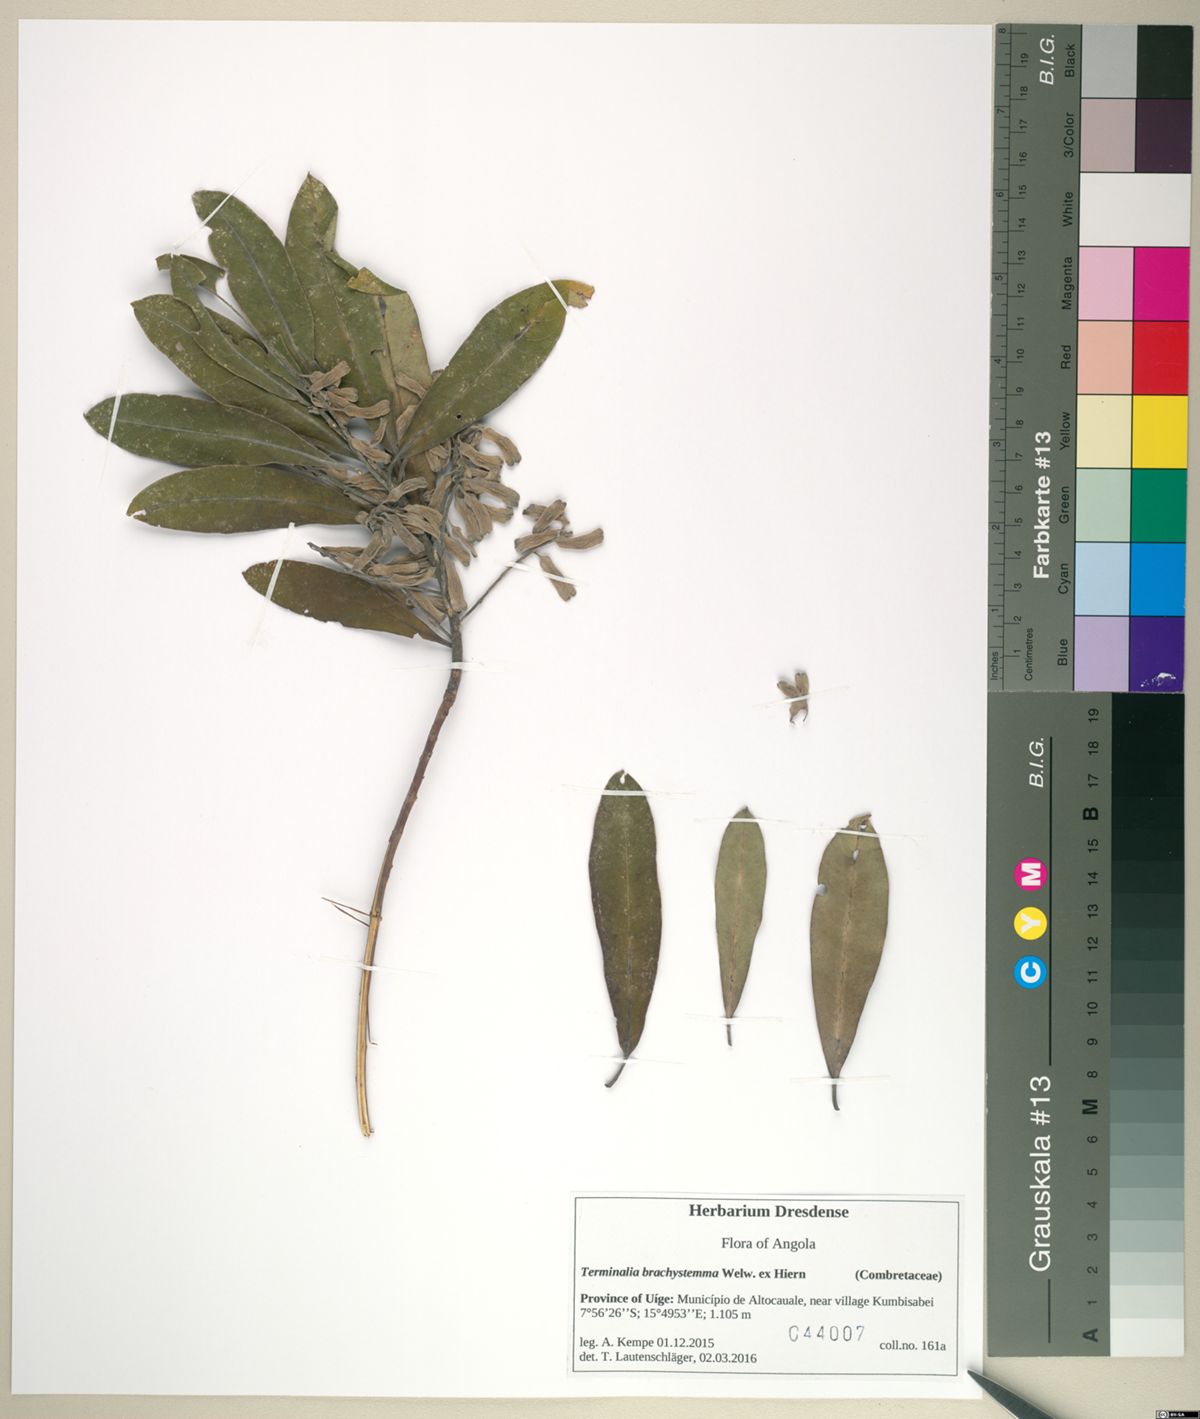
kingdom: Plantae
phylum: Tracheophyta
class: Magnoliopsida
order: Myrtales
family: Combretaceae
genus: Terminalia
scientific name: Terminalia brachystemma
